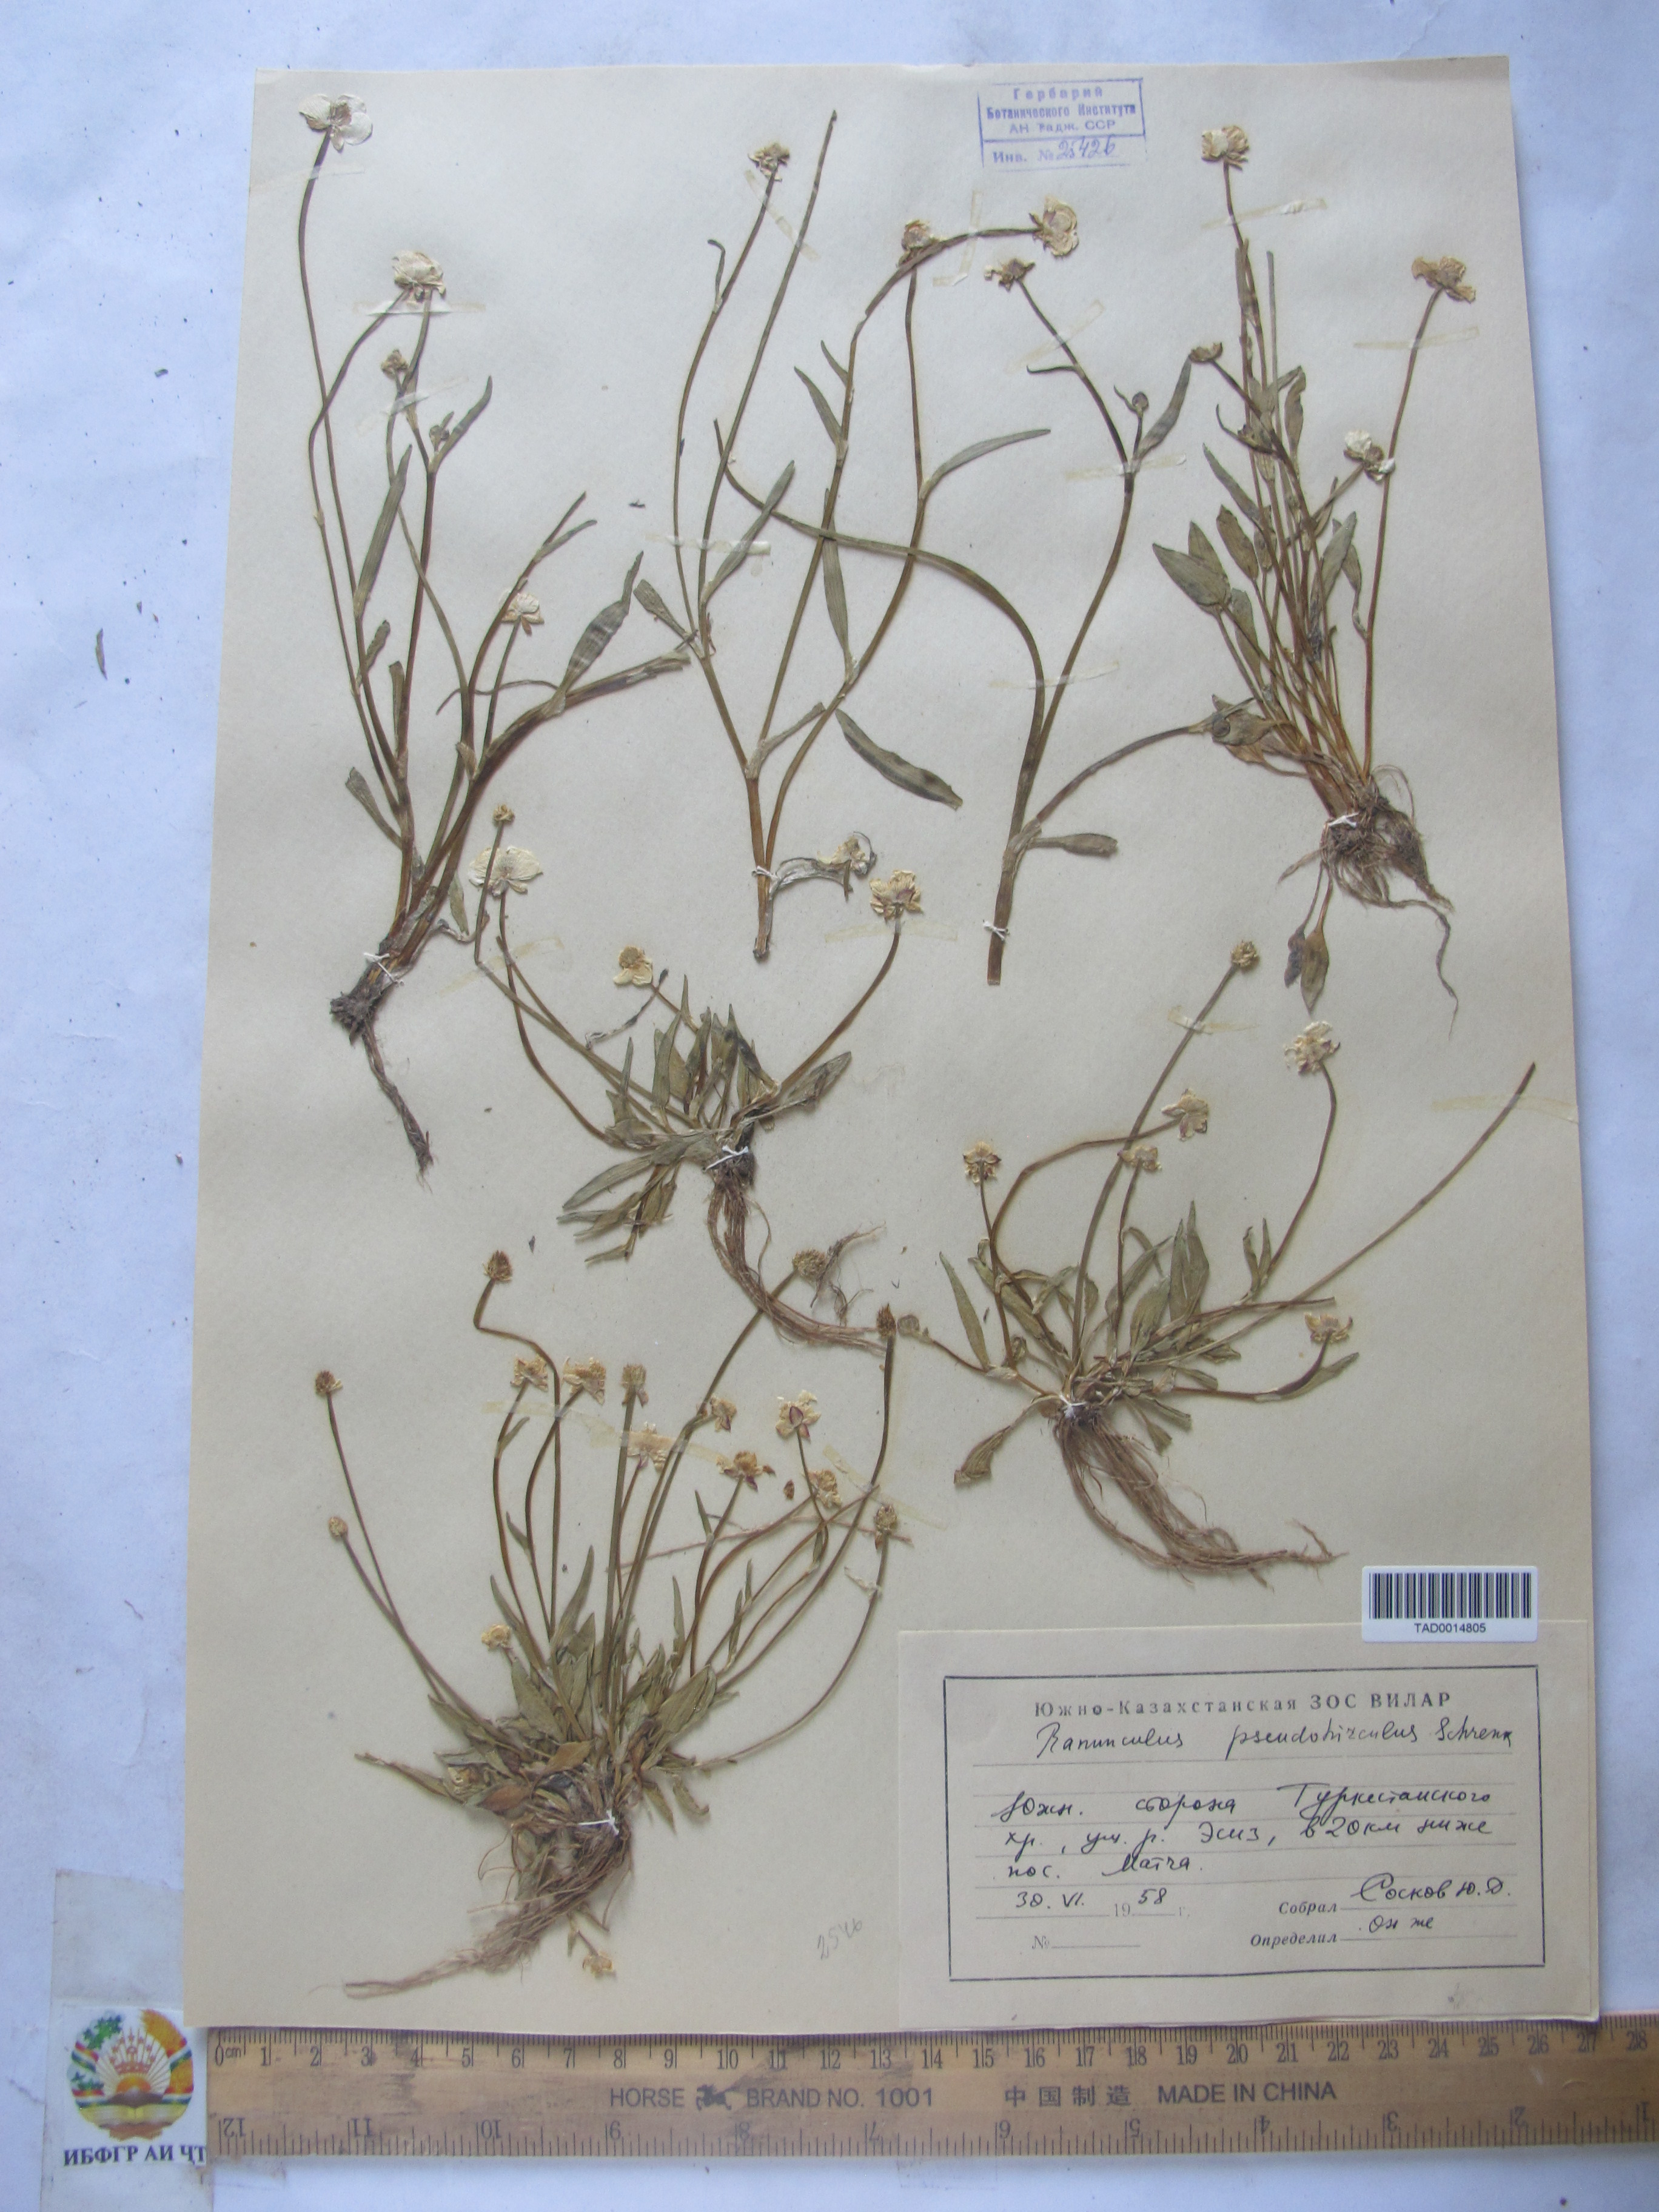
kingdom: Plantae
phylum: Tracheophyta
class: Magnoliopsida
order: Ranunculales
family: Ranunculaceae
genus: Ranunculus
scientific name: Ranunculus pseudohirculus
